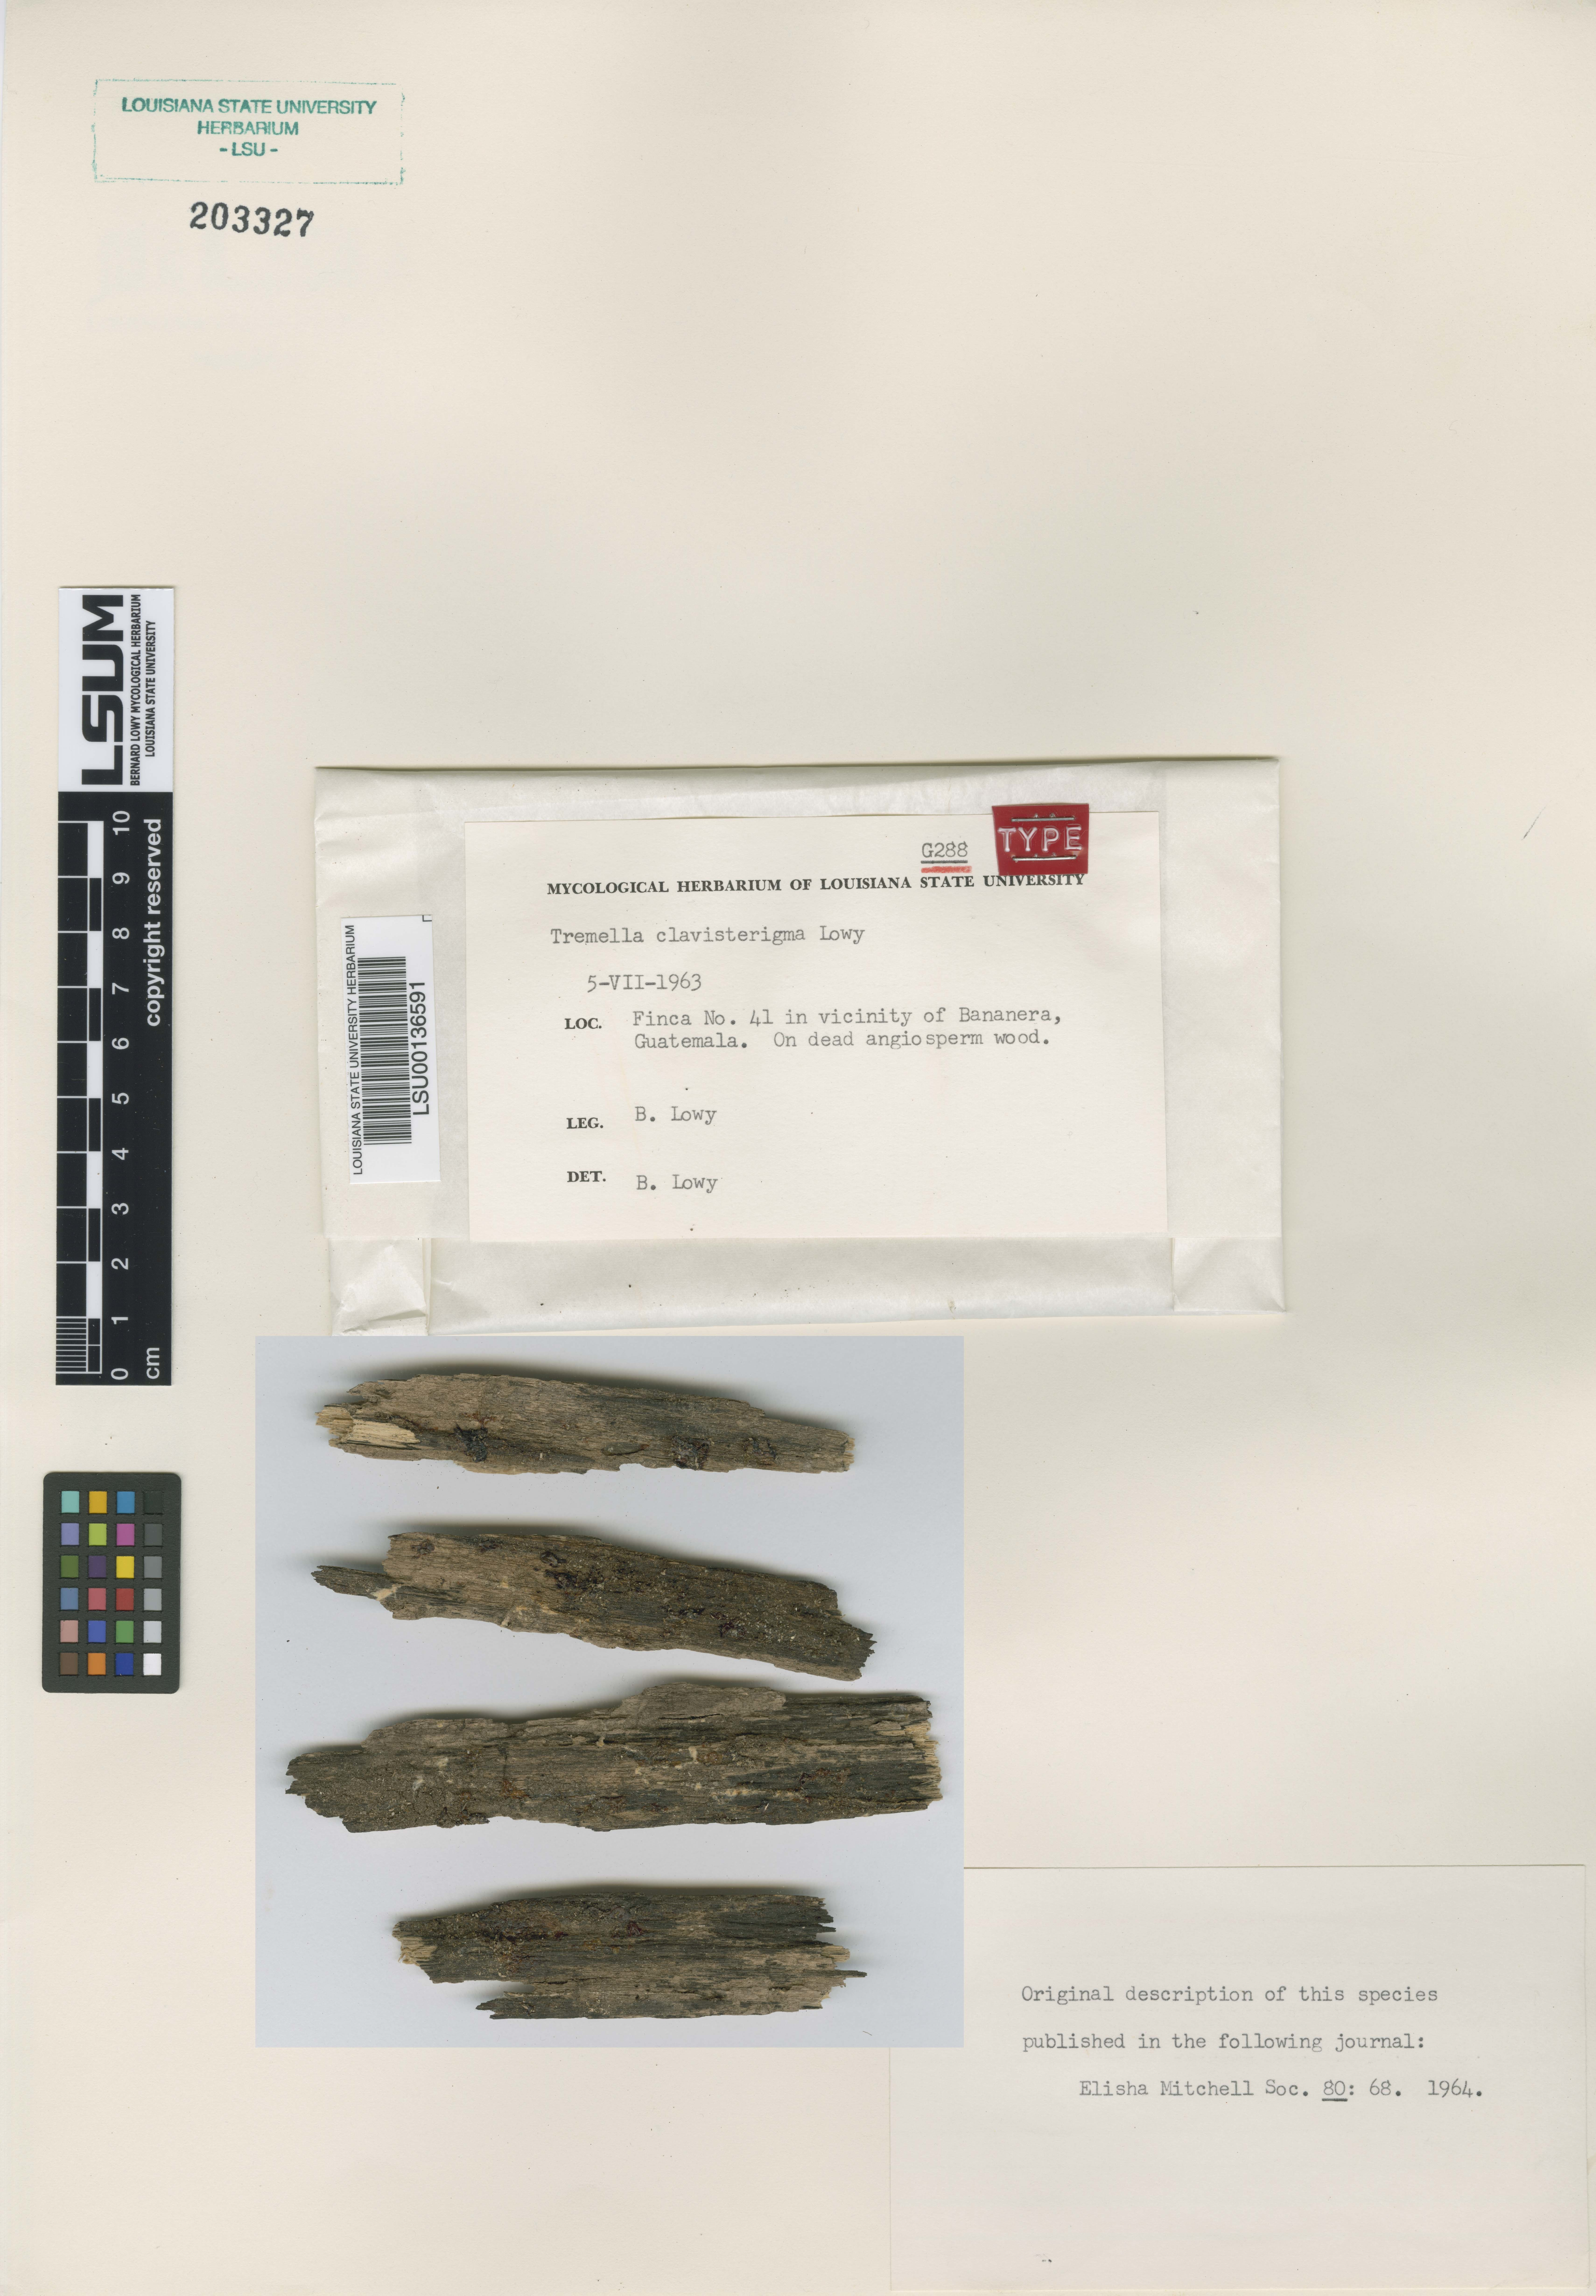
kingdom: Fungi
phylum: Basidiomycota
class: Tremellomycetes
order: Tremellales
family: Tremellaceae
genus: Tremella
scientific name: Tremella clavisterigma
